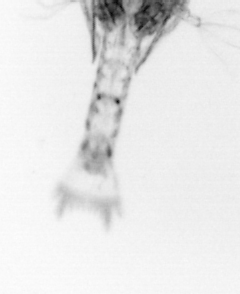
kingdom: Animalia
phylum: Arthropoda
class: Copepoda
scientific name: Copepoda
